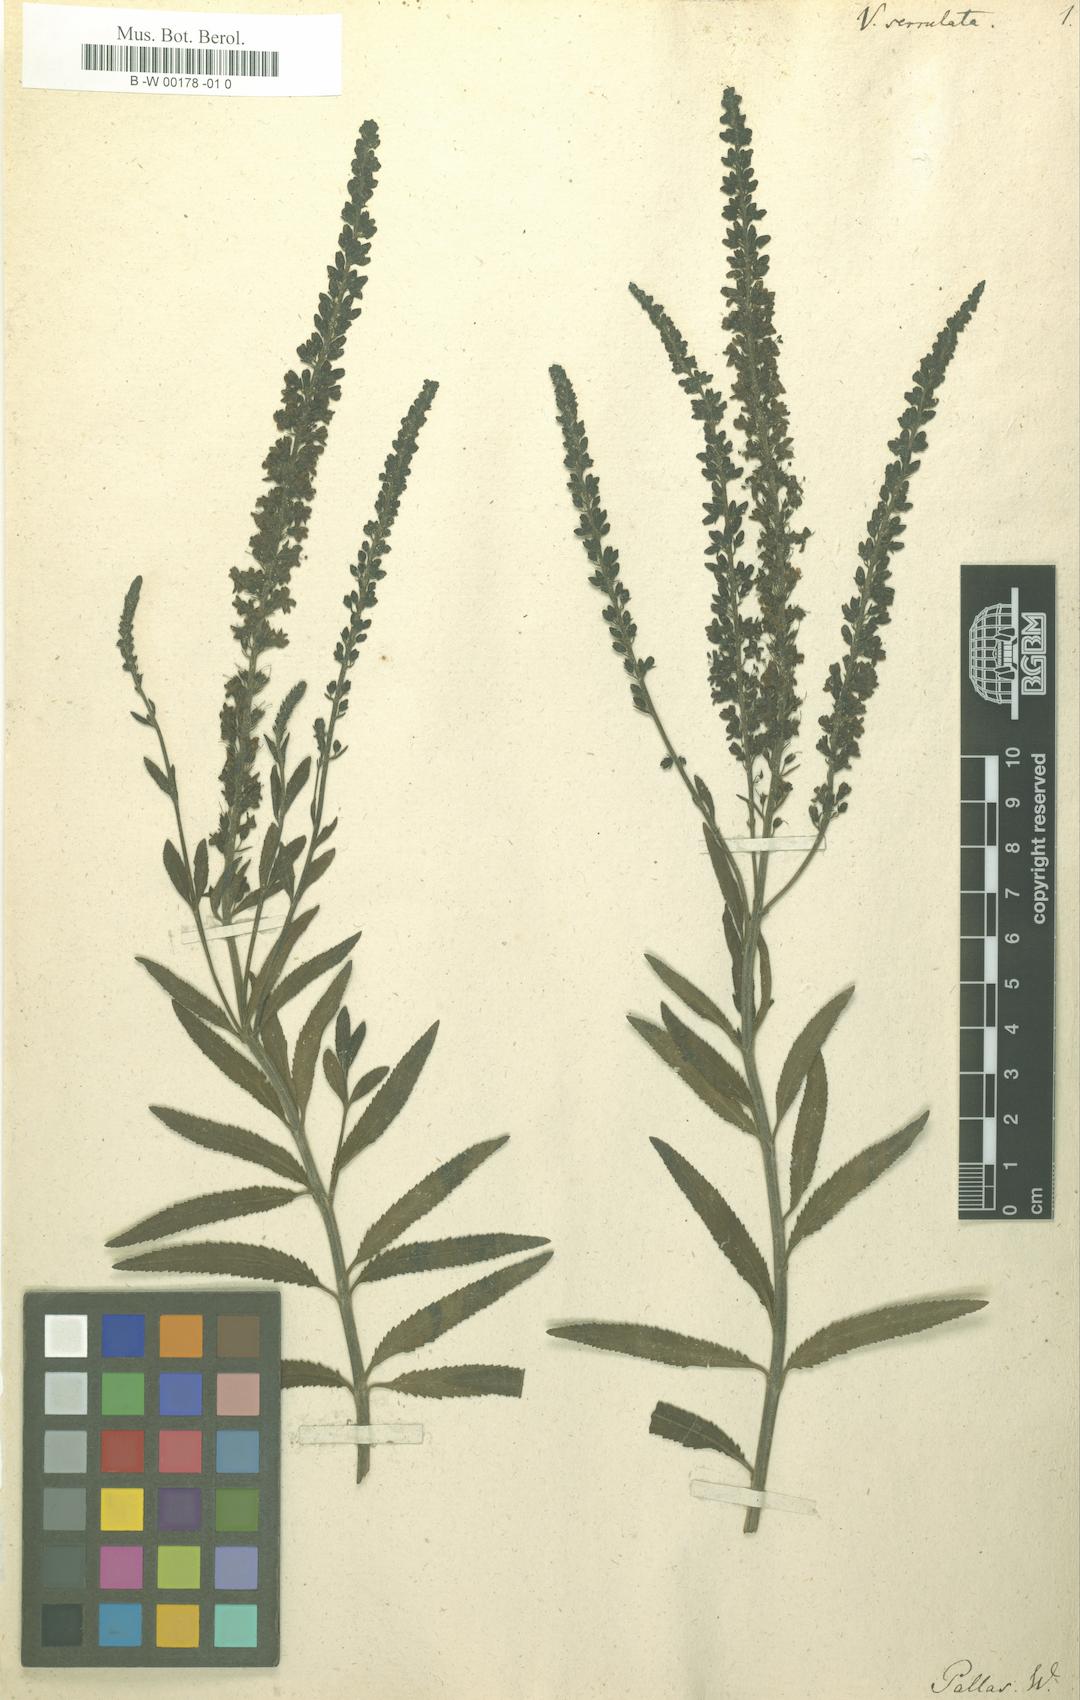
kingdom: Plantae
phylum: Tracheophyta
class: Magnoliopsida
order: Lamiales
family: Plantaginaceae
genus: Veronica
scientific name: Veronica spuria
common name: Bastard speedwell
